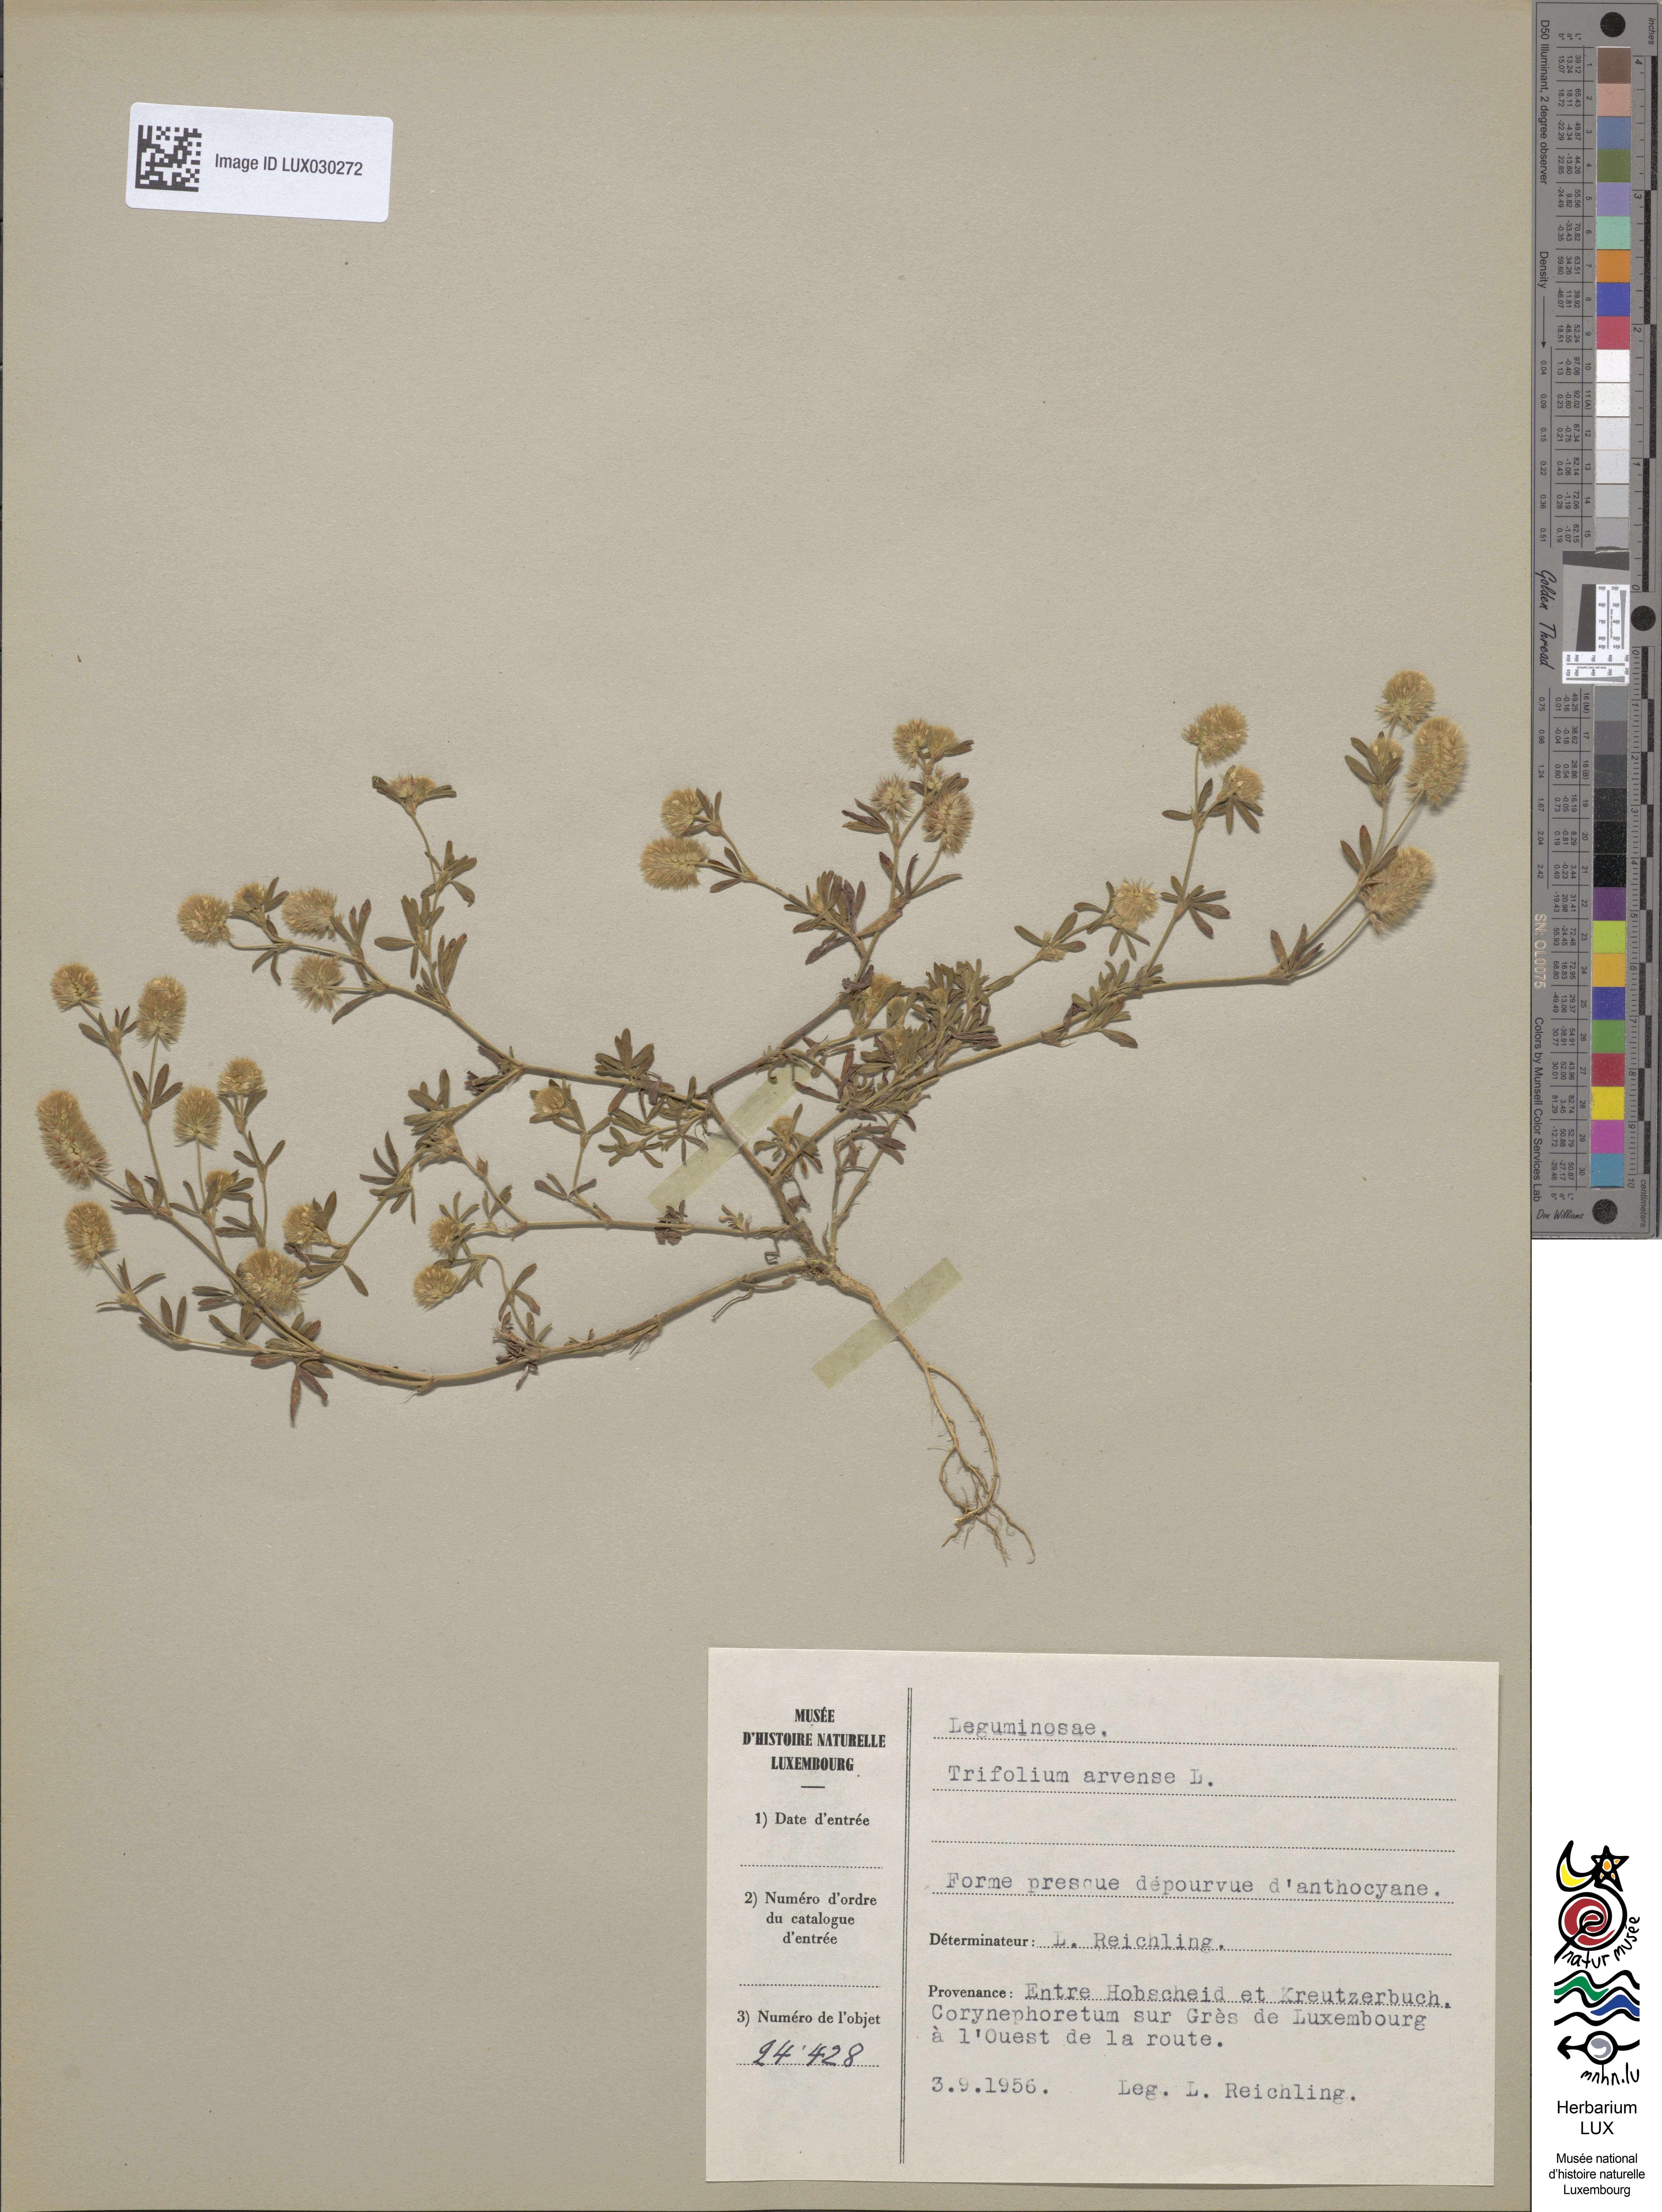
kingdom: Plantae
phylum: Tracheophyta
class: Magnoliopsida
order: Fabales
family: Fabaceae
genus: Trifolium
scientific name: Trifolium arvense
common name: Hare's-foot clover
